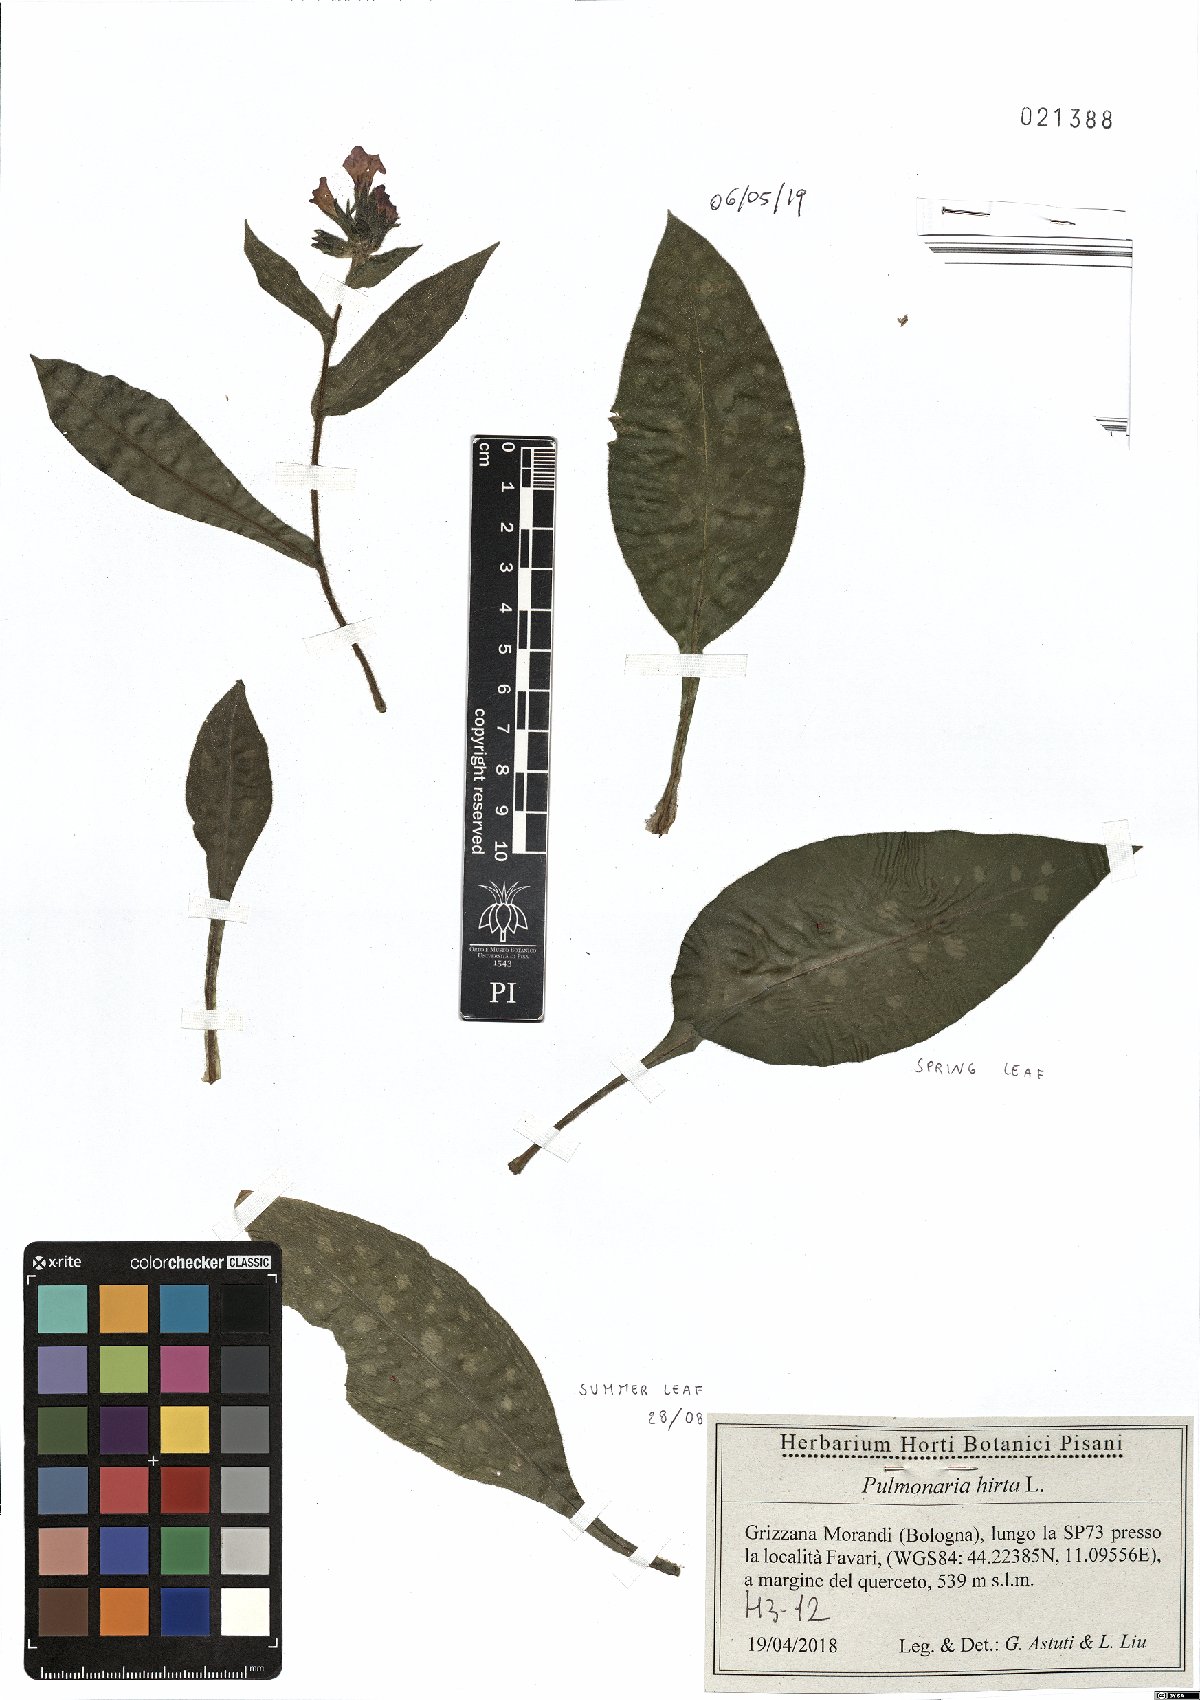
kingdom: Plantae
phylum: Tracheophyta
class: Magnoliopsida
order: Boraginales
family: Boraginaceae
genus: Pulmonaria
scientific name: Pulmonaria hirta
